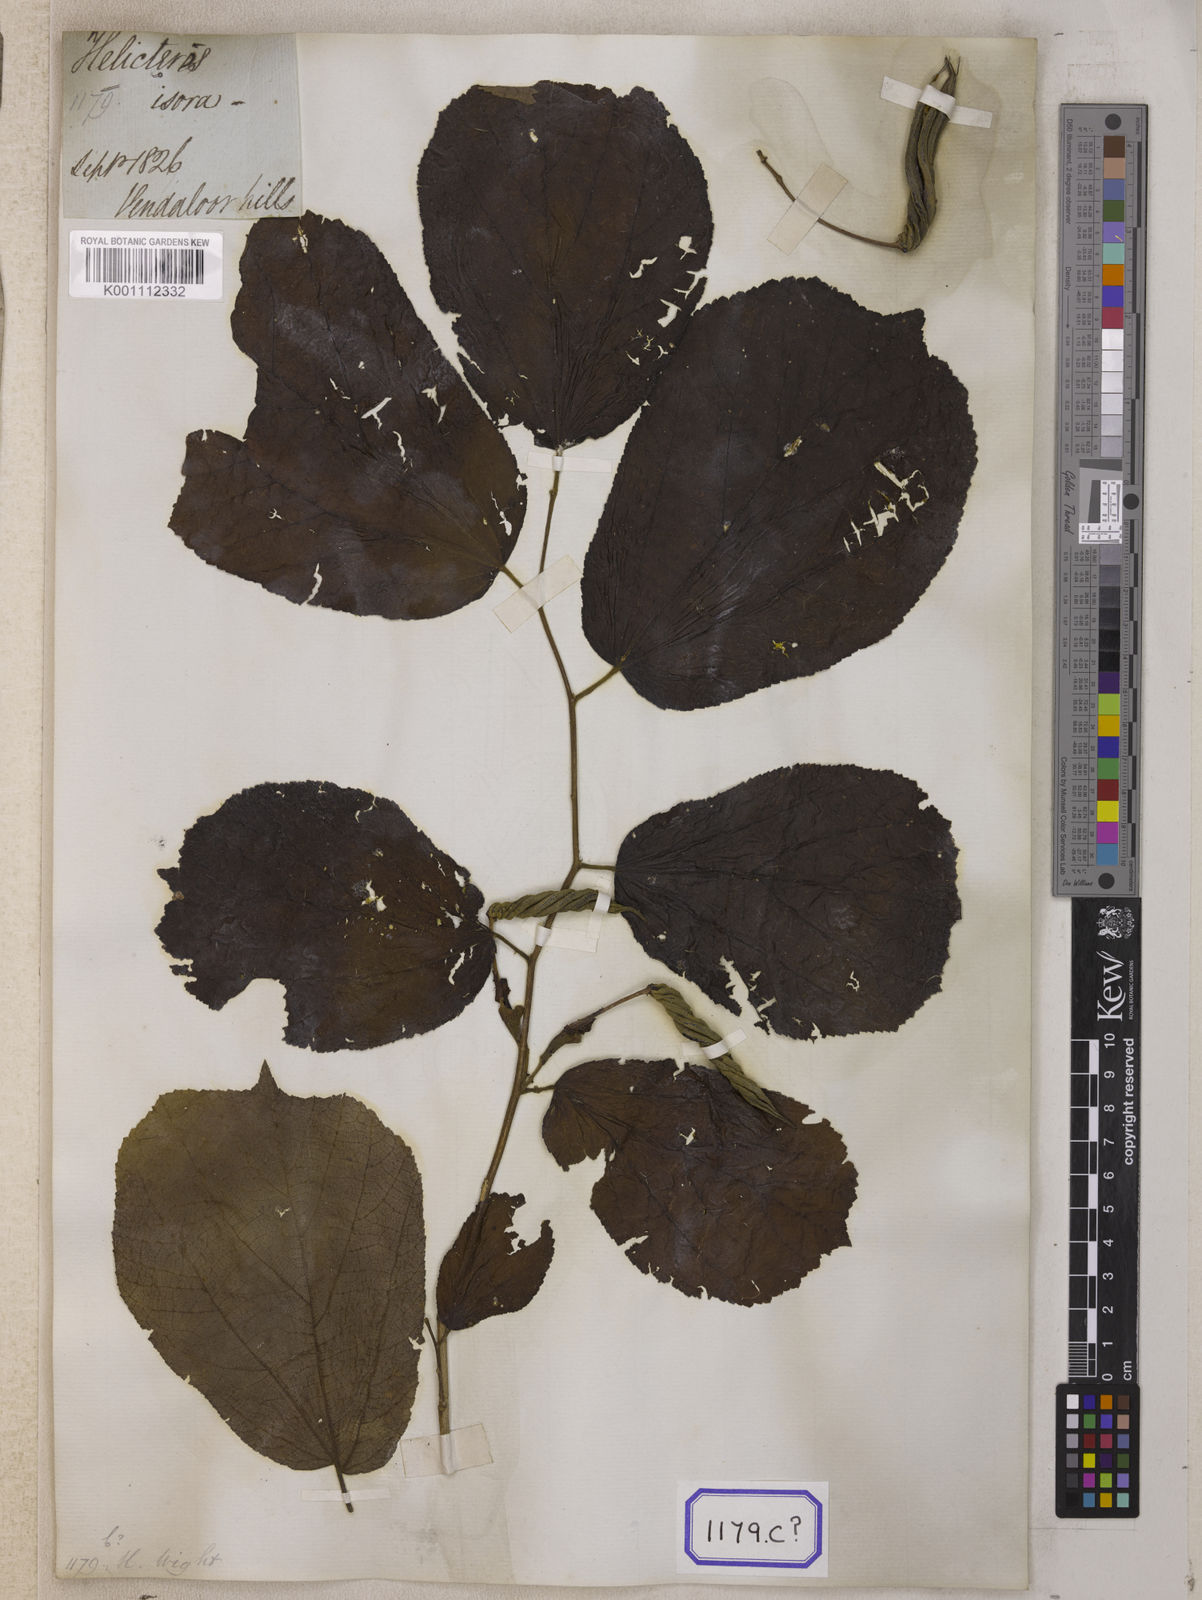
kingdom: Plantae
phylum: Tracheophyta
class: Magnoliopsida
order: Malvales
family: Malvaceae
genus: Helicteres
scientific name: Helicteres isora
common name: East indian screwtree
